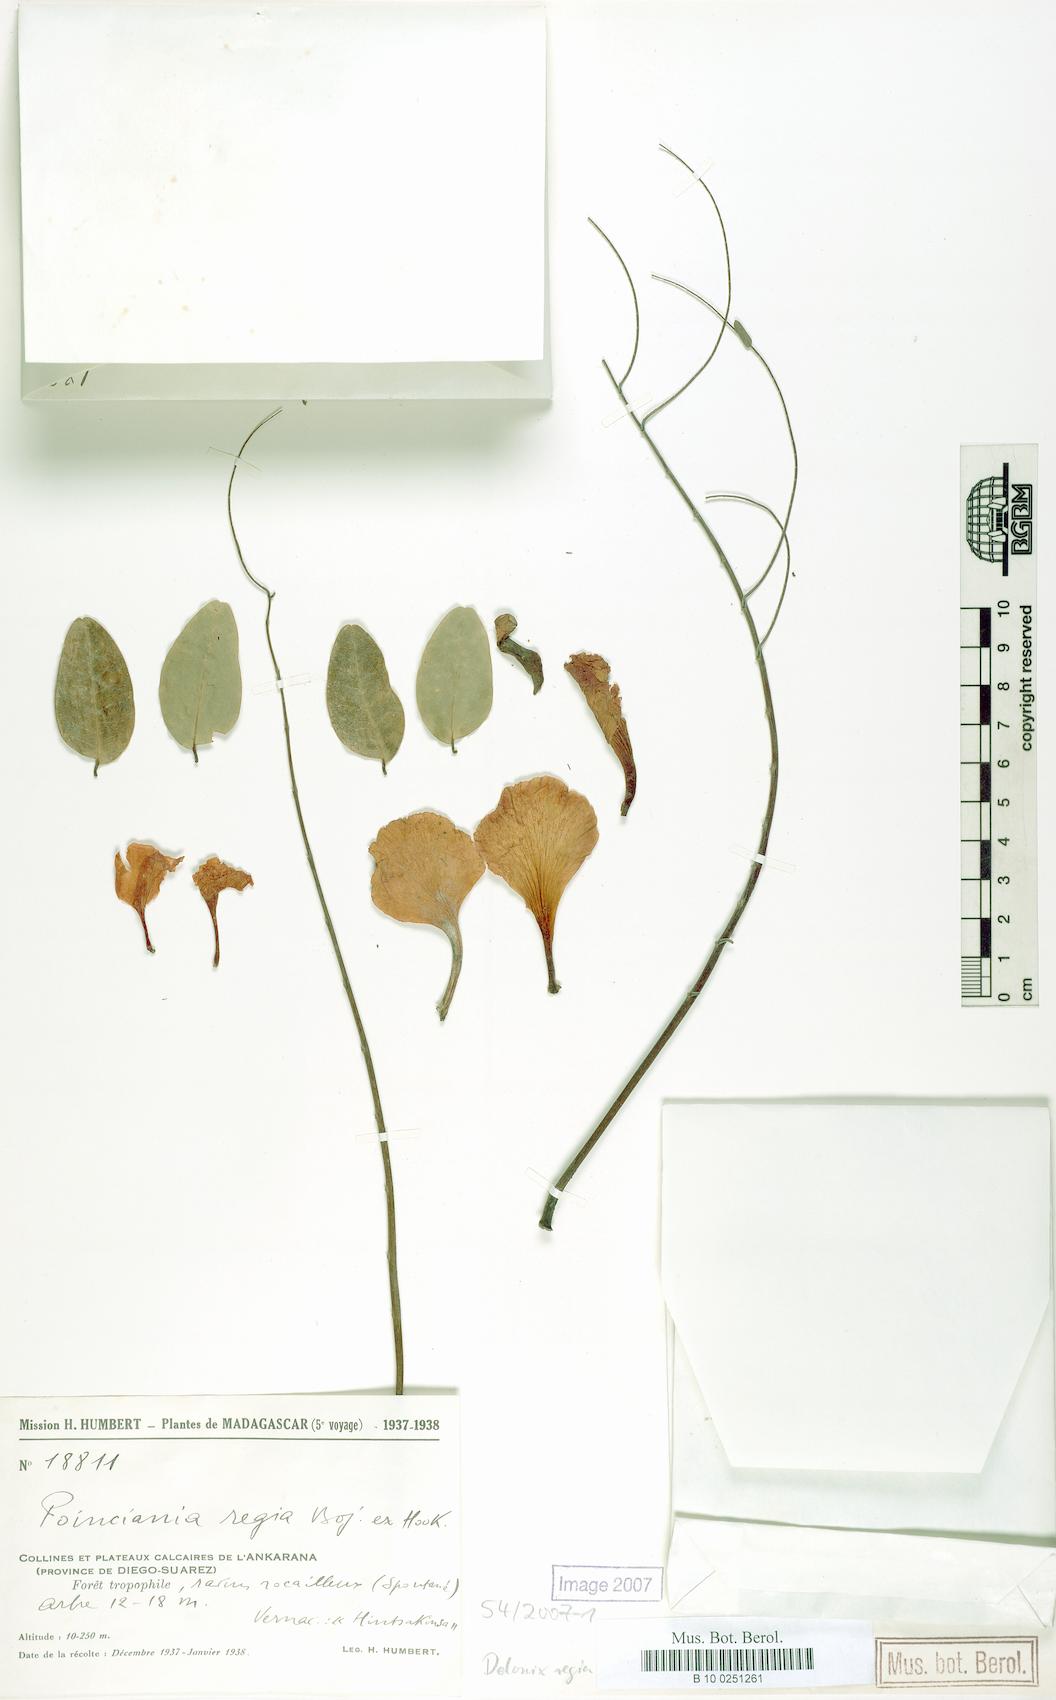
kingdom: Plantae
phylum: Tracheophyta
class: Magnoliopsida
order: Fabales
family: Fabaceae
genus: Delonix
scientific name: Delonix regia
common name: Royal poinciana
